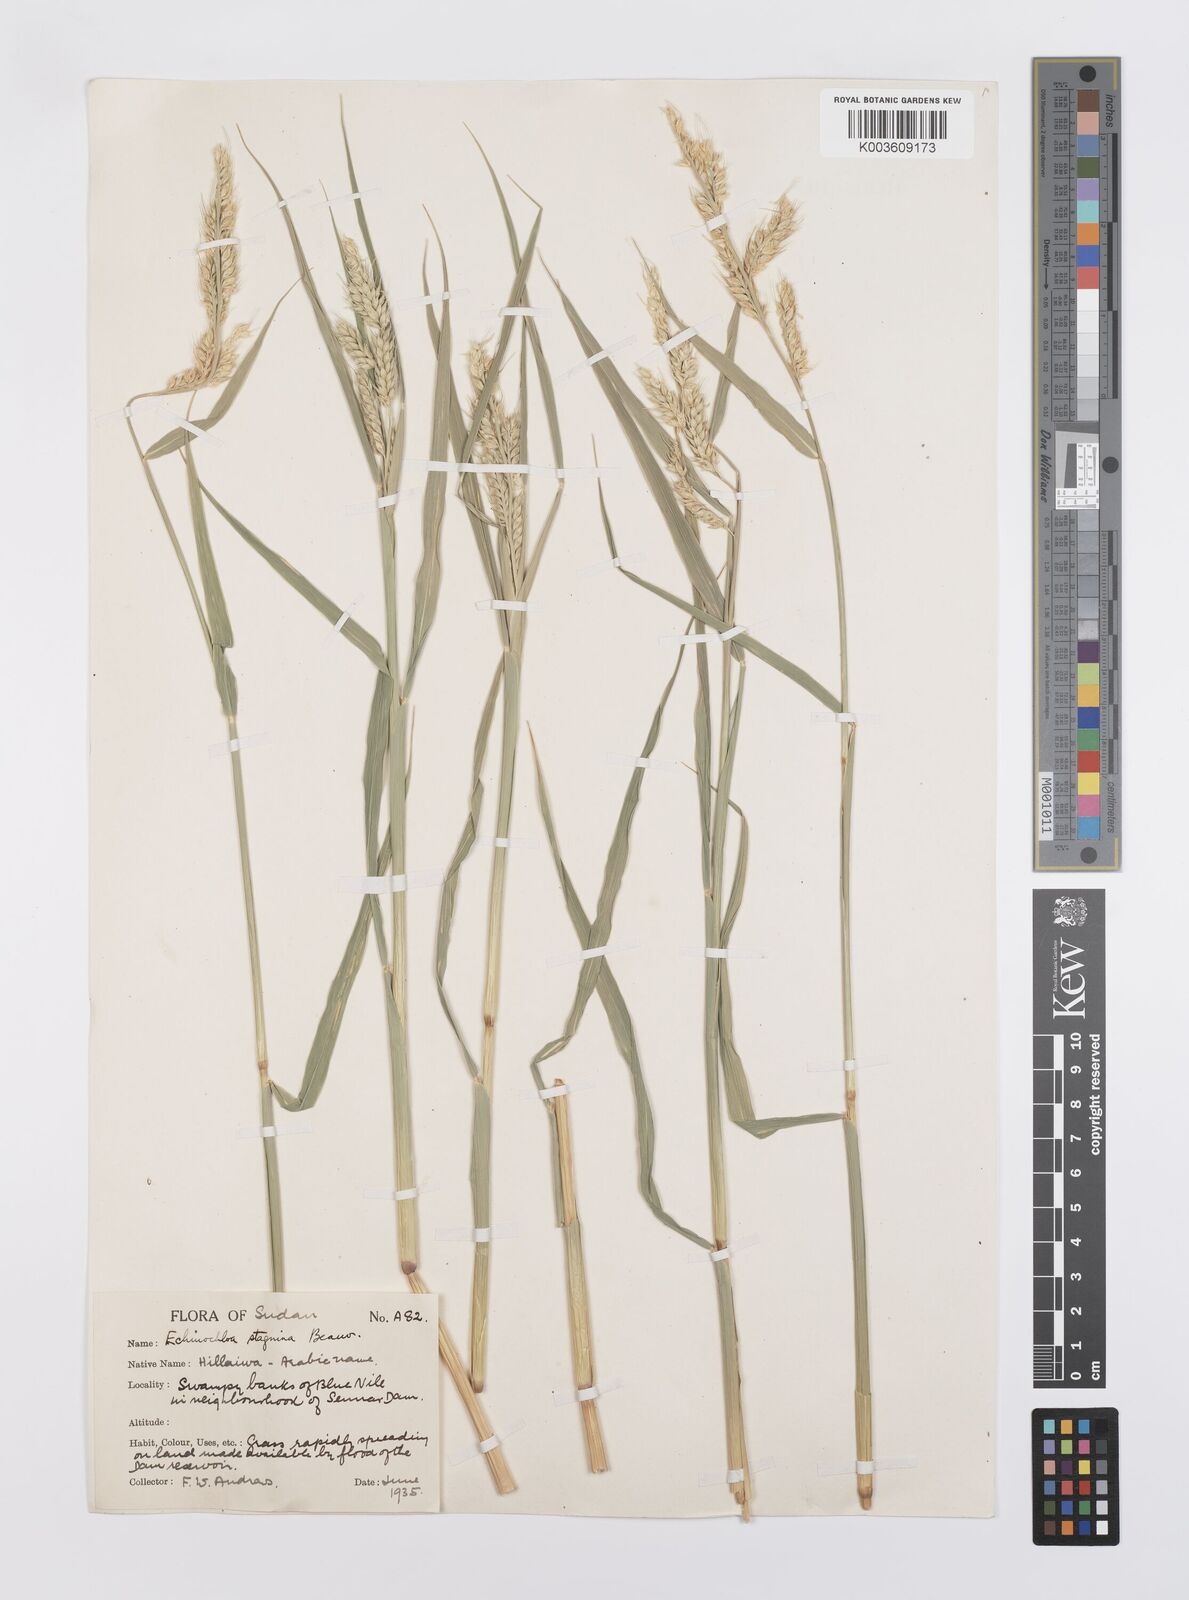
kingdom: Plantae
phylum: Tracheophyta
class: Liliopsida
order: Poales
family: Poaceae
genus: Echinochloa
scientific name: Echinochloa stagnina
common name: Burgu grass
